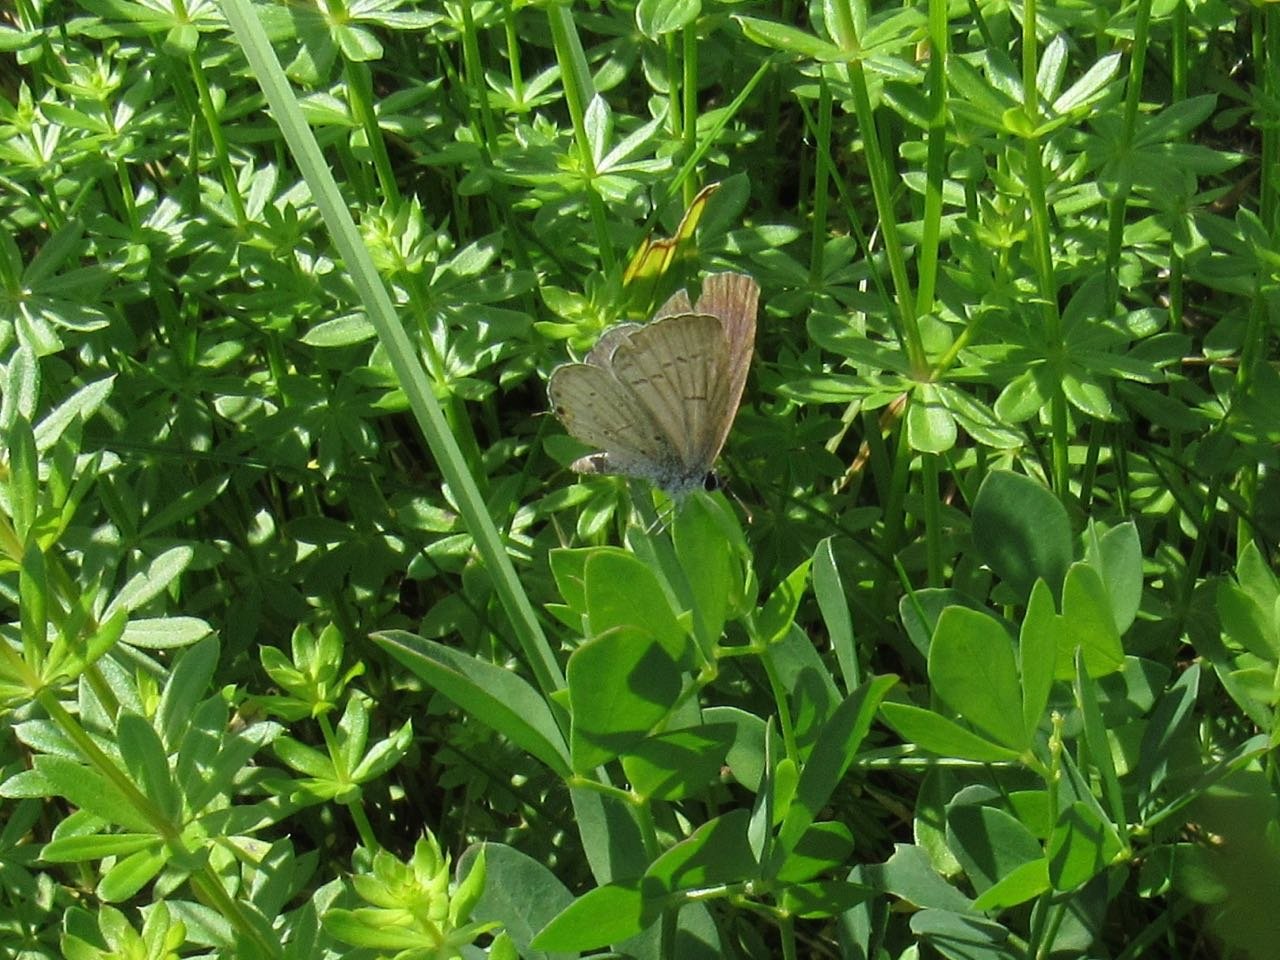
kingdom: Animalia
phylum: Arthropoda
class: Insecta
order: Lepidoptera
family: Lycaenidae
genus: Elkalyce
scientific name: Elkalyce comyntas
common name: Eastern Tailed-Blue
